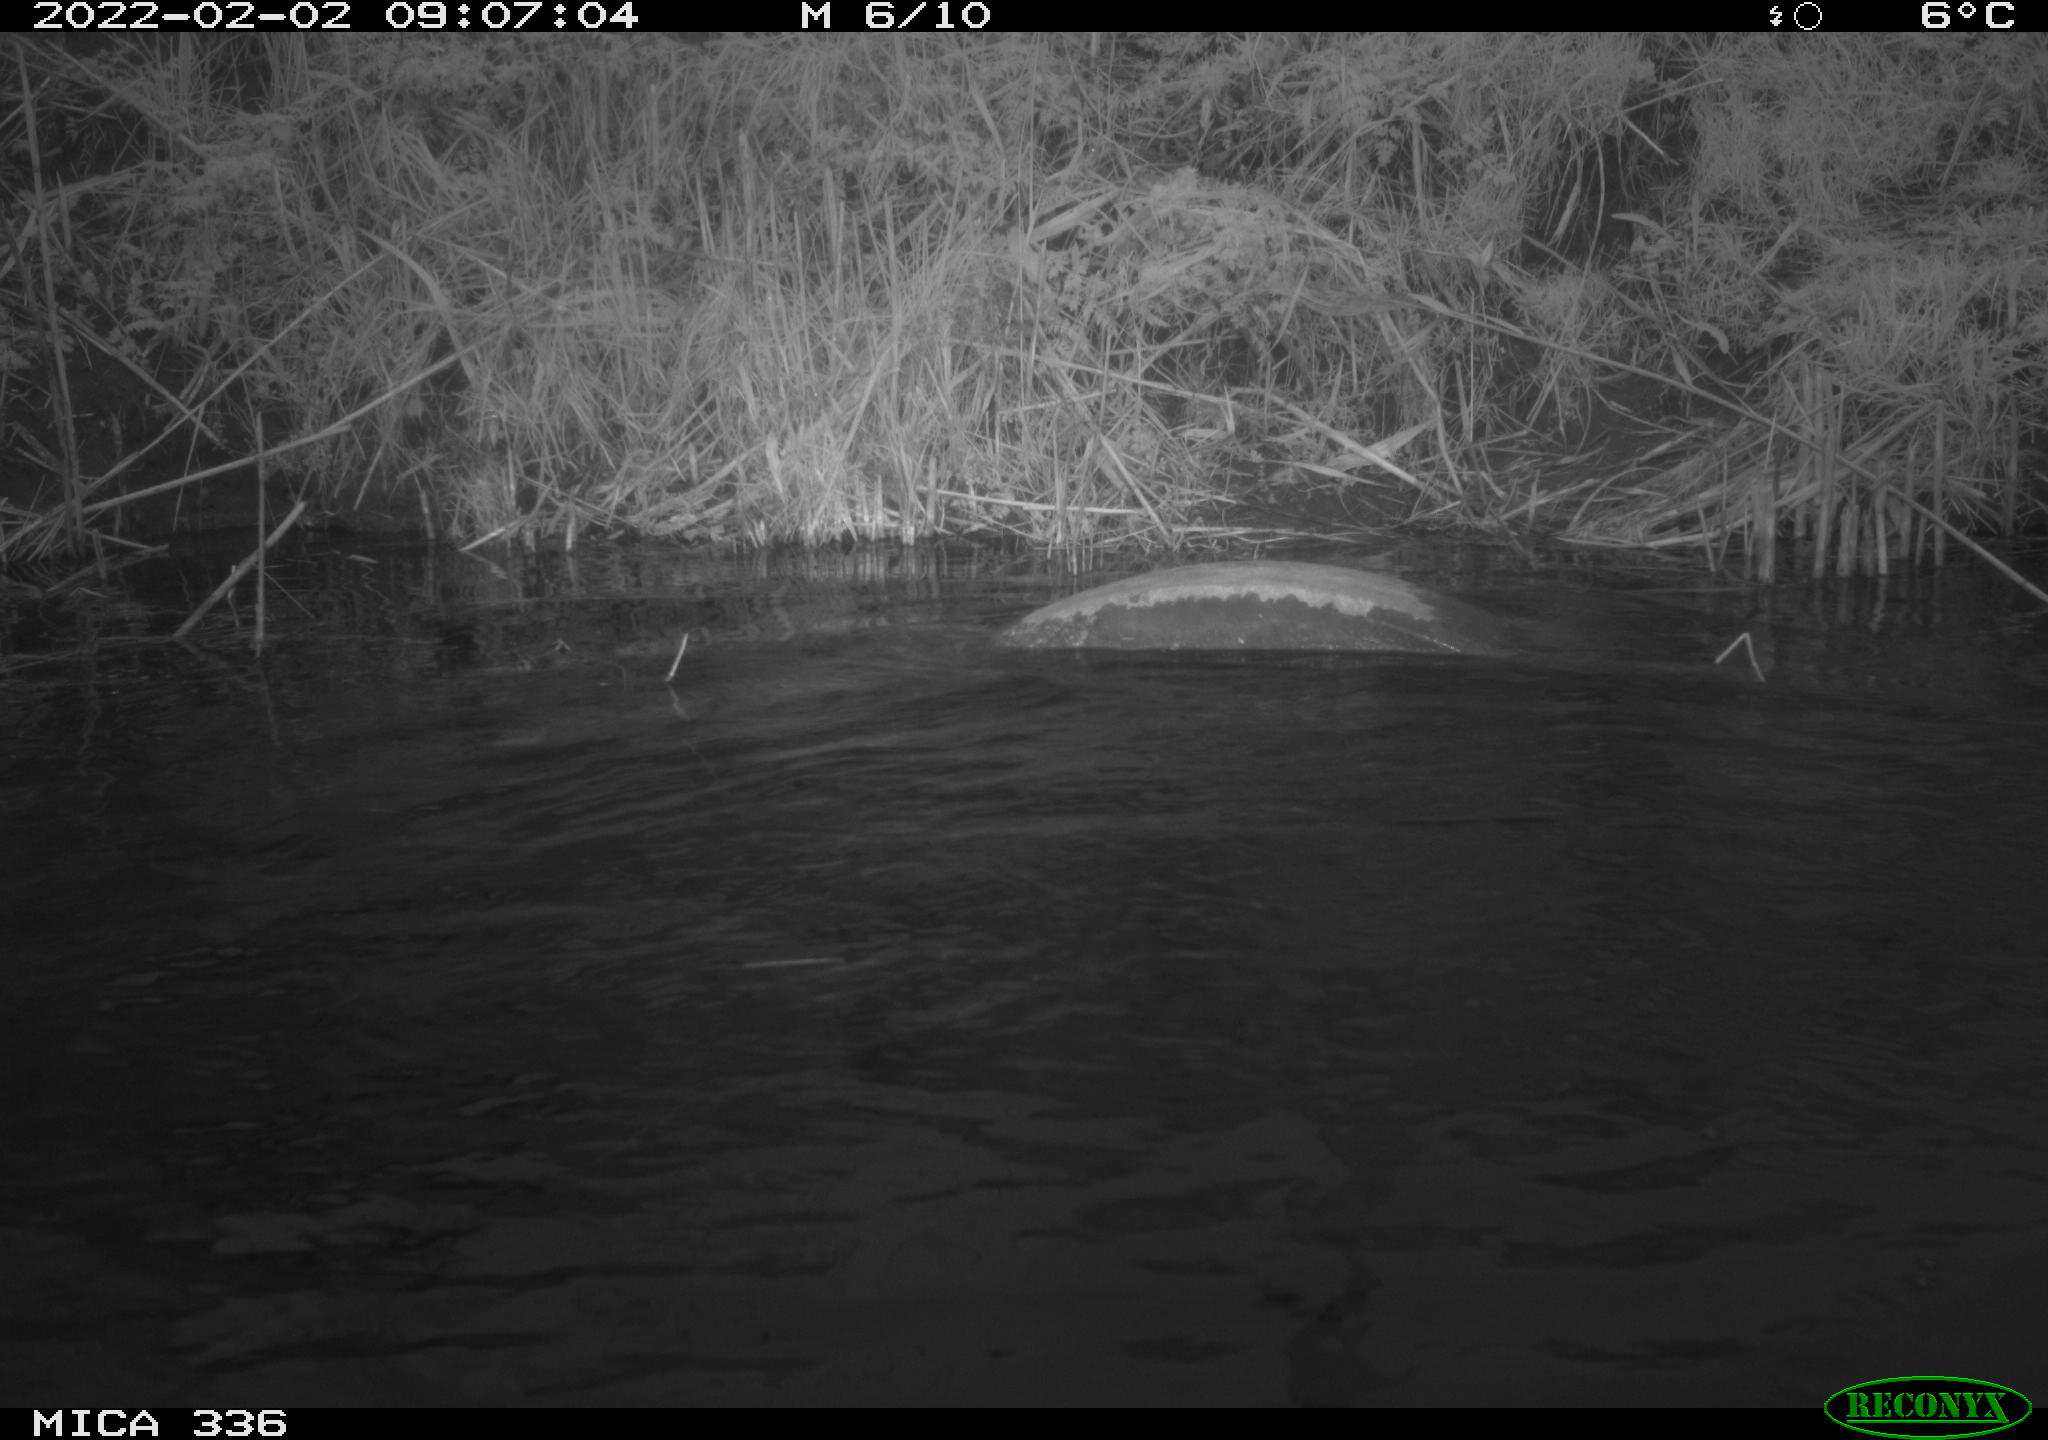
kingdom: Animalia
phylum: Chordata
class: Aves
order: Suliformes
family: Phalacrocoracidae
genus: Phalacrocorax
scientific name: Phalacrocorax carbo
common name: Great cormorant
